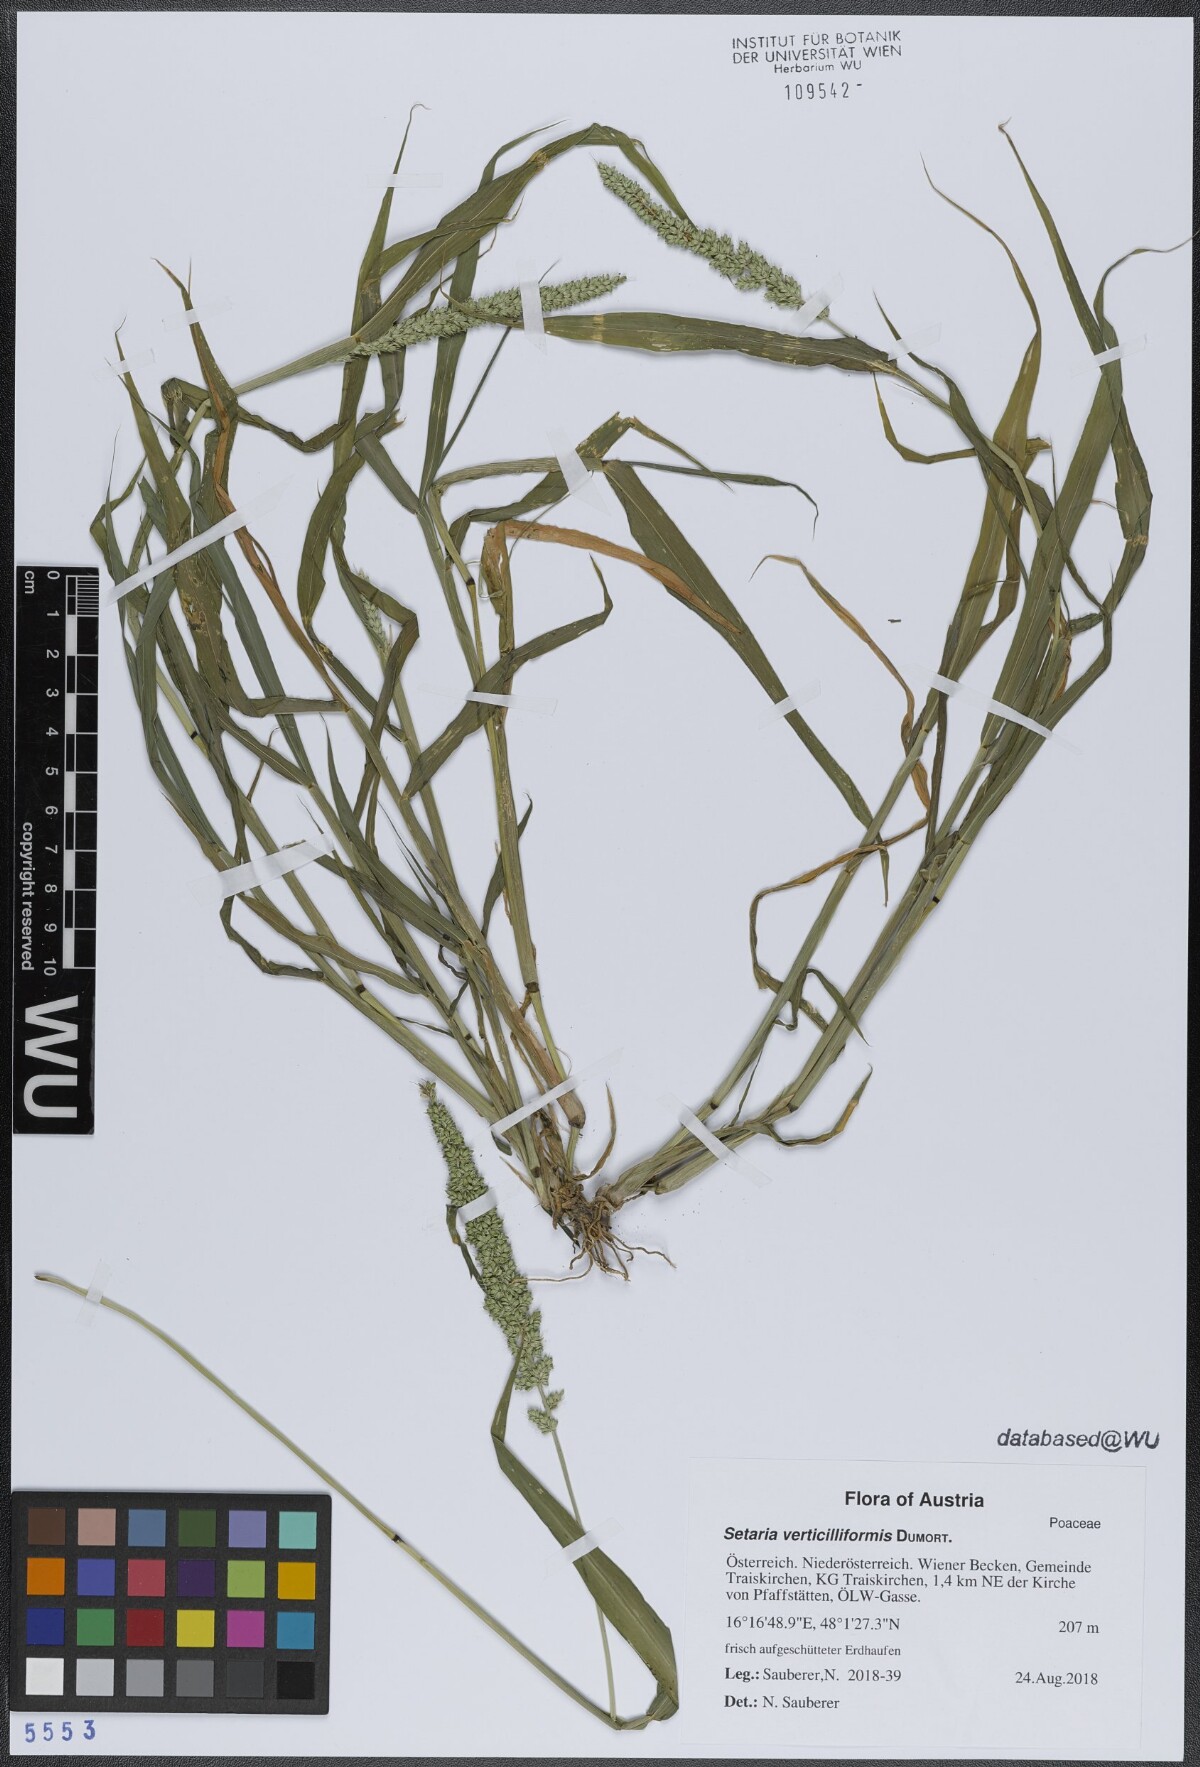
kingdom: Plantae
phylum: Tracheophyta
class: Liliopsida
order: Poales
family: Poaceae
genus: Setaria
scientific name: Setaria verticillata
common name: Hooked bristlegrass
